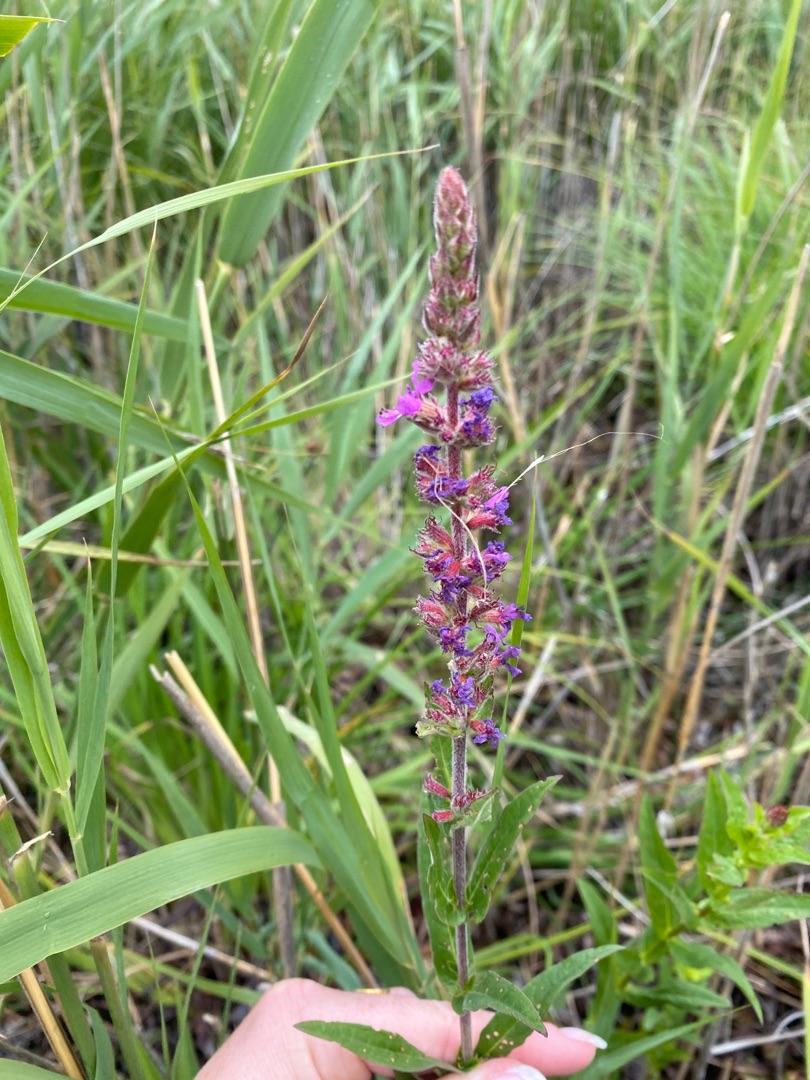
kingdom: Plantae
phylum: Tracheophyta
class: Magnoliopsida
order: Myrtales
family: Lythraceae
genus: Lythrum
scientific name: Lythrum salicaria
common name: Kattehale
